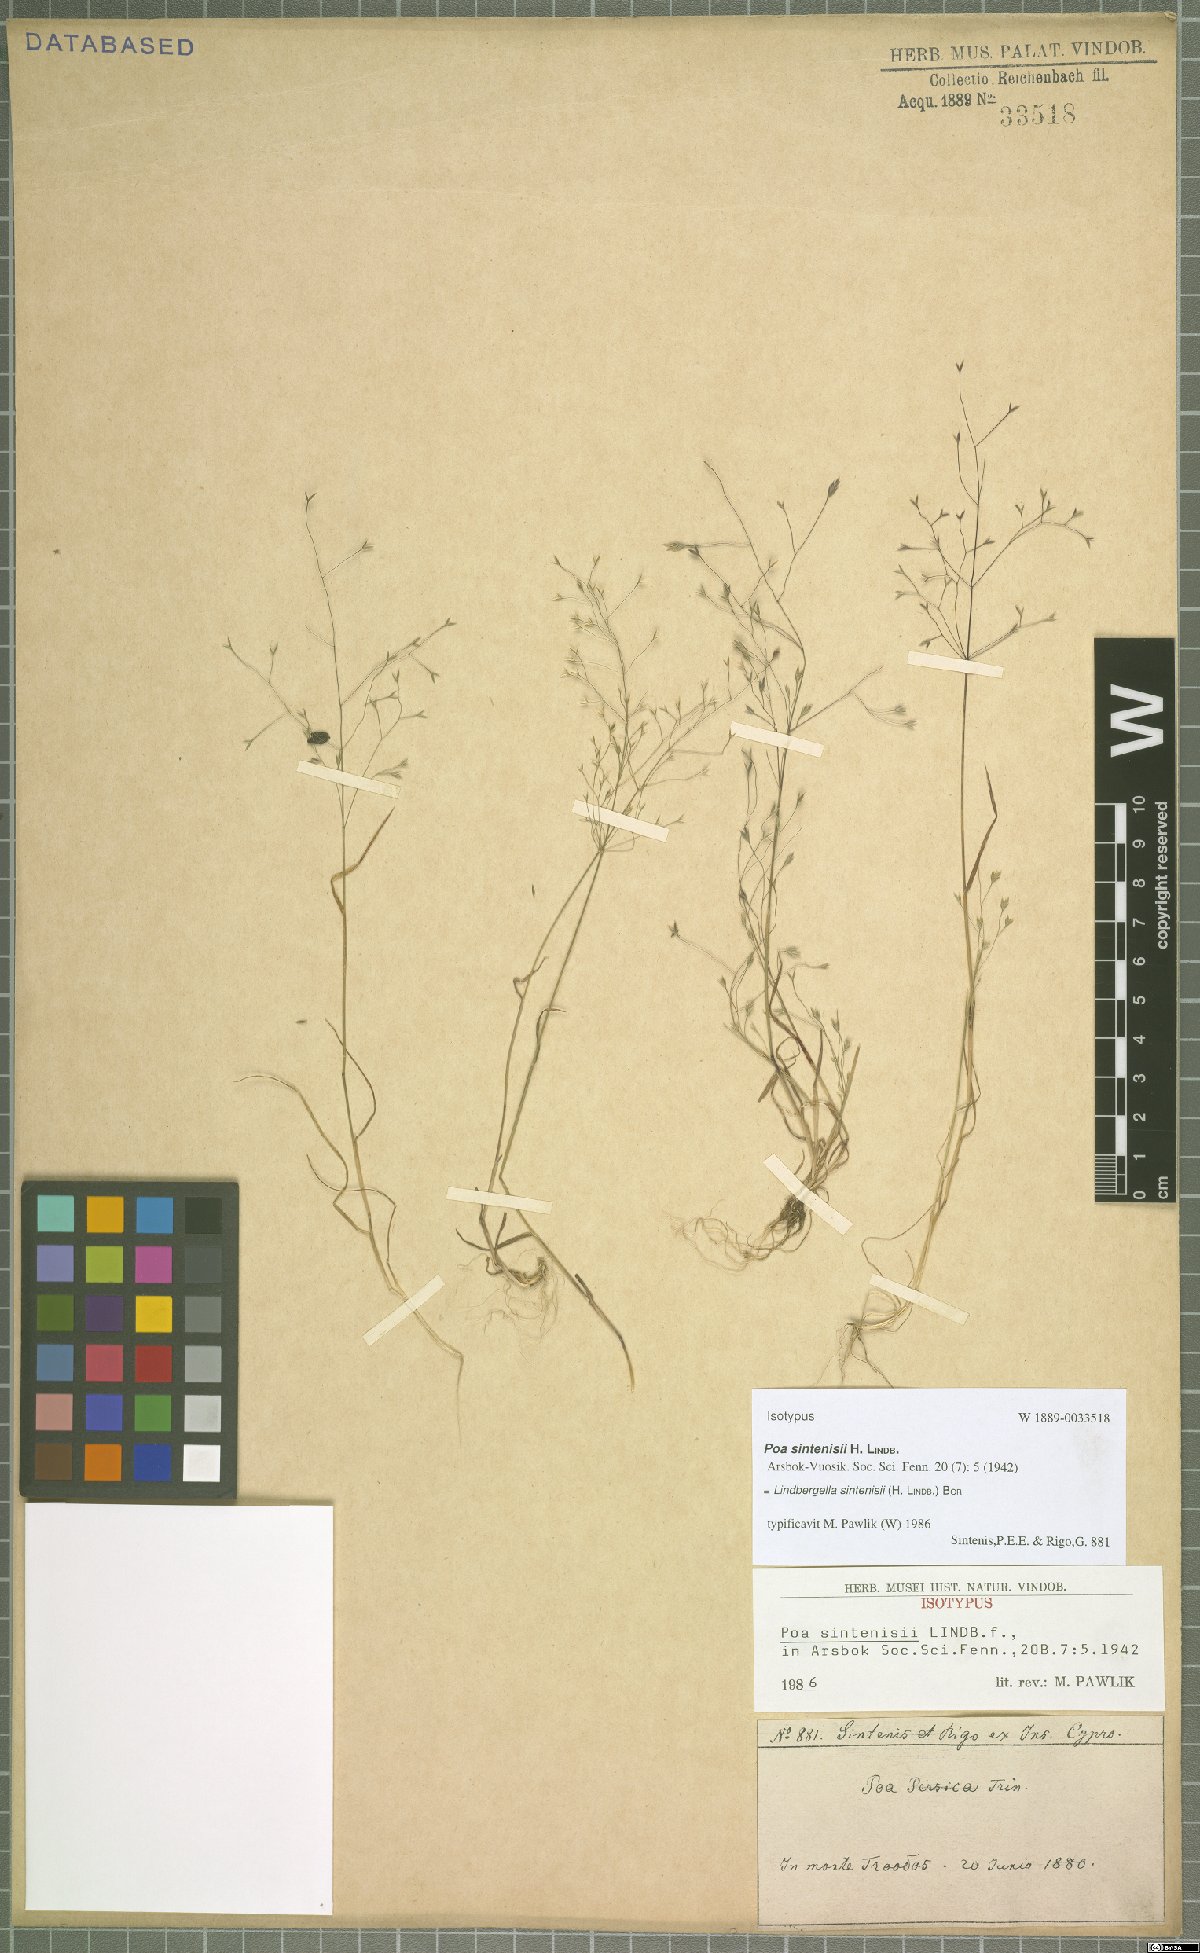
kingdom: Plantae
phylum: Tracheophyta
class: Liliopsida
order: Poales
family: Poaceae
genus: Poa
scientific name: Poa sintenisii
